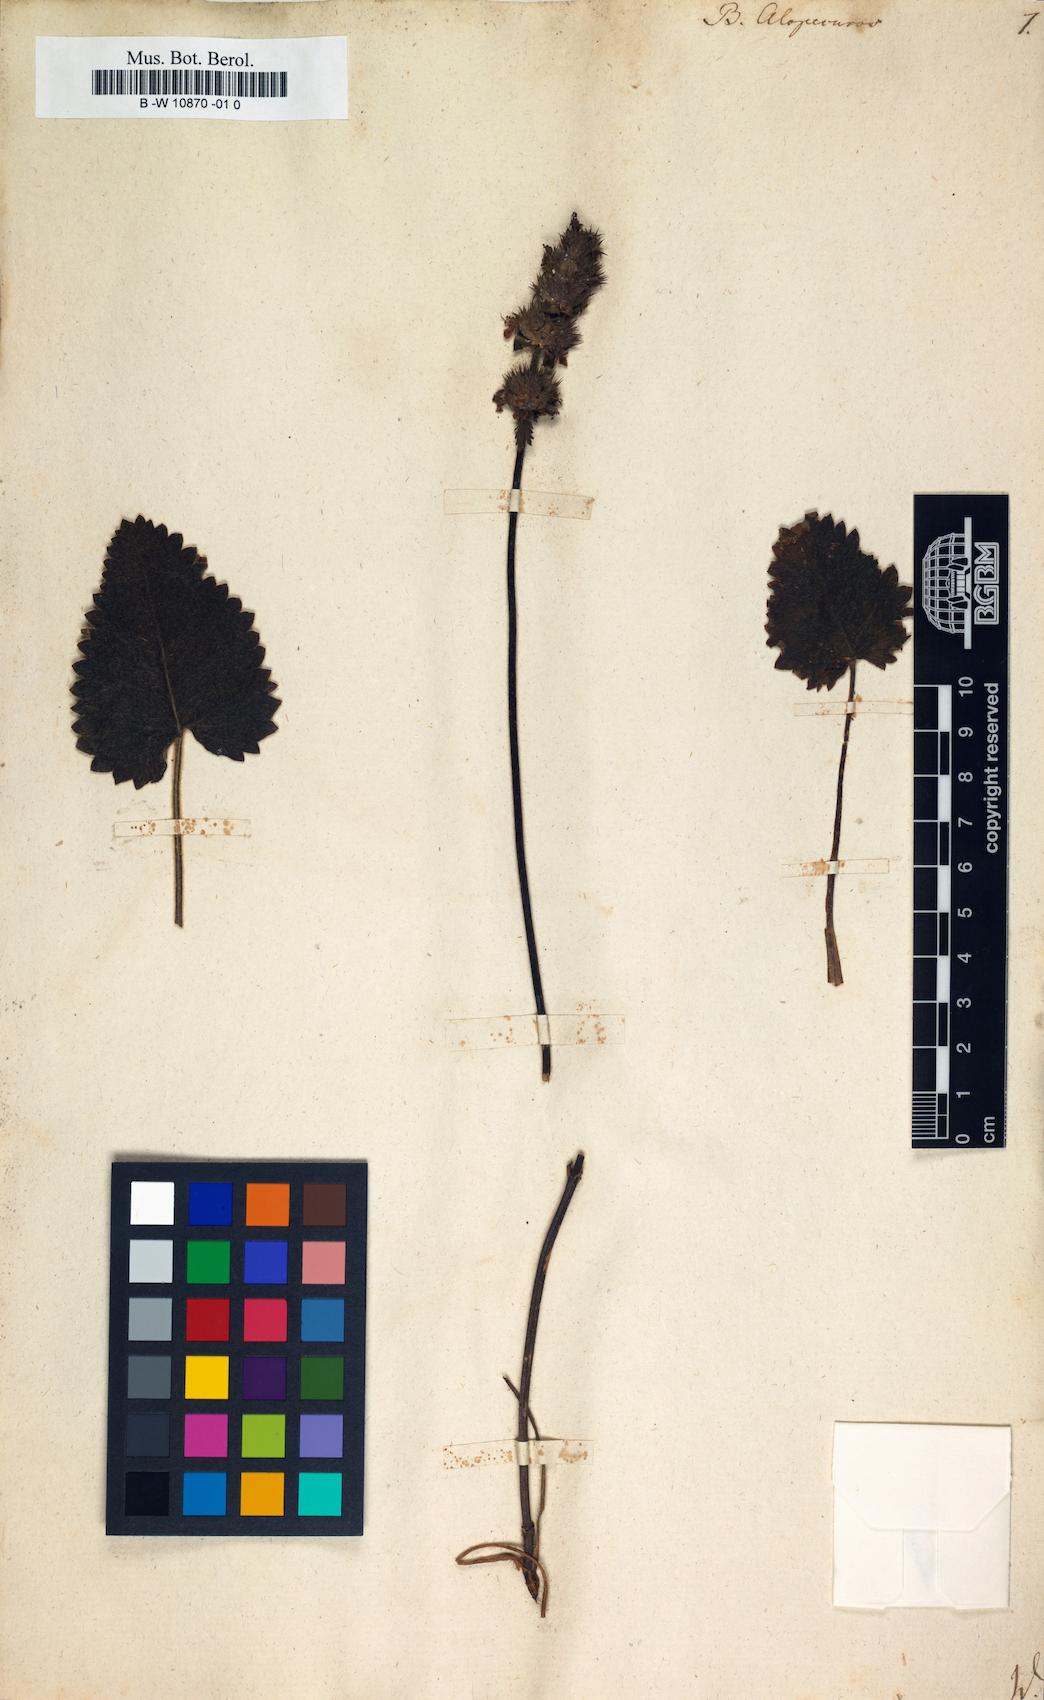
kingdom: Plantae
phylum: Tracheophyta
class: Magnoliopsida
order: Lamiales
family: Lamiaceae
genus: Betonica
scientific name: Betonica alopecuros
